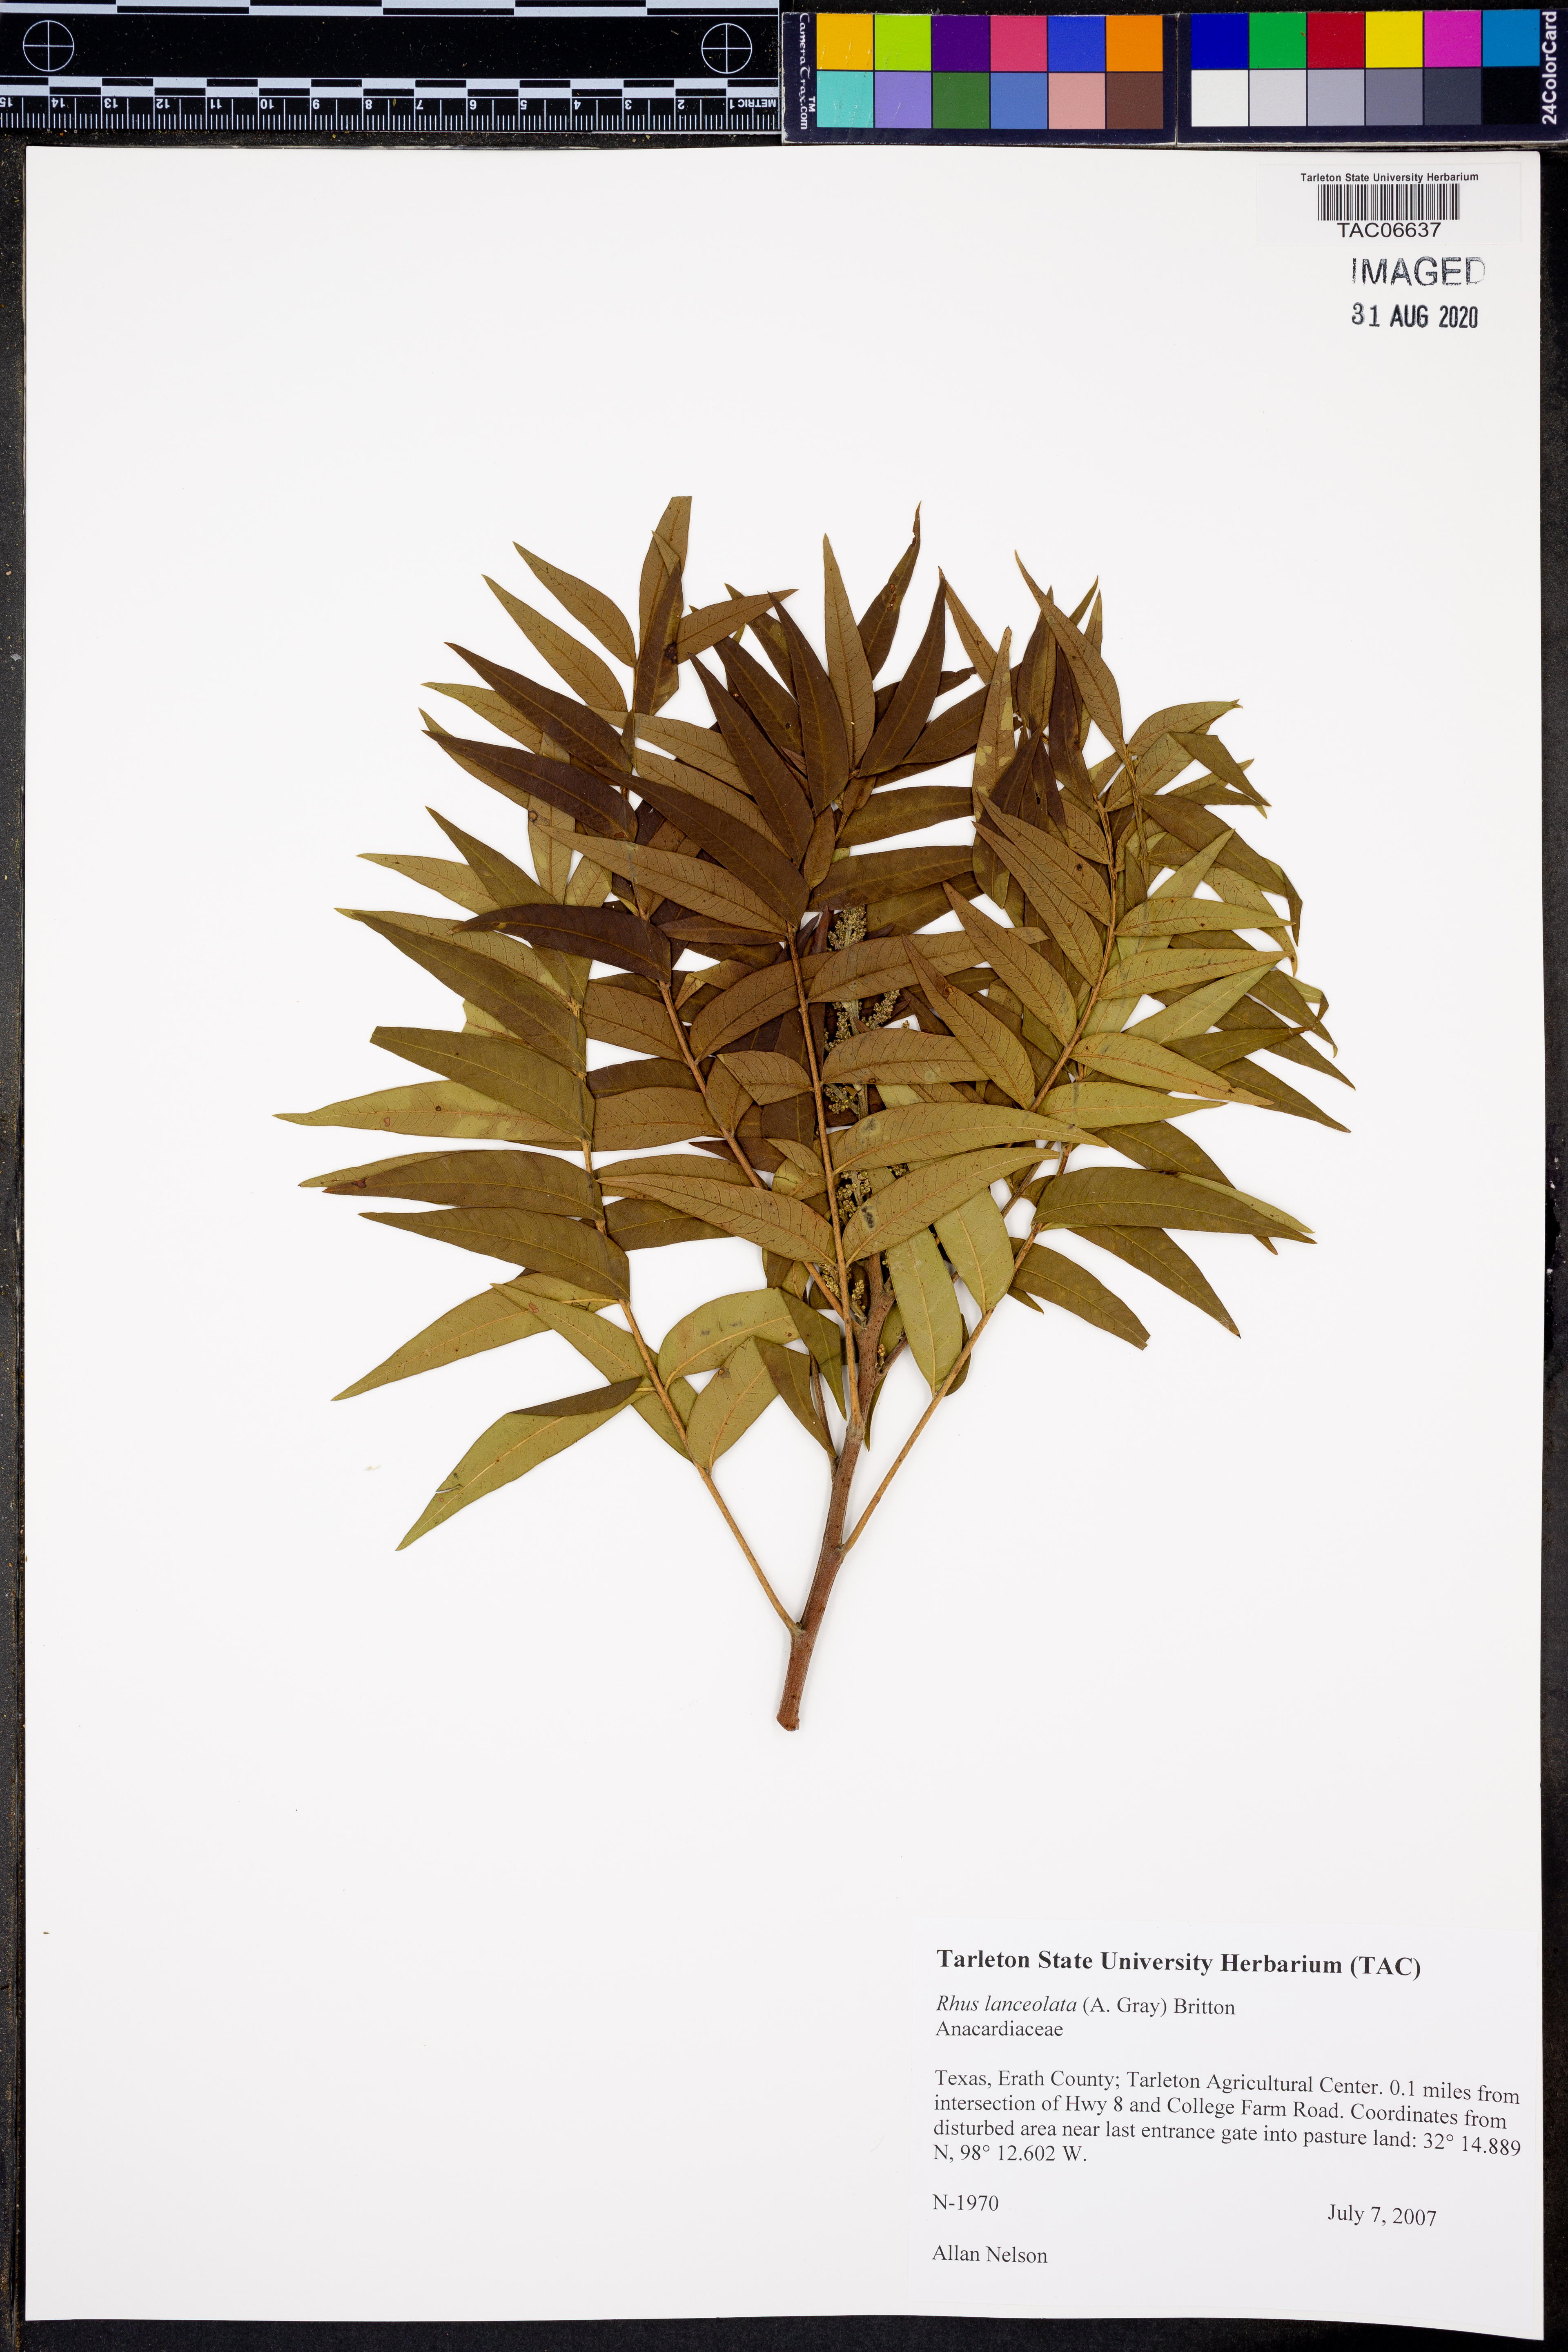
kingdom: Plantae
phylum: Tracheophyta
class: Magnoliopsida
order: Sapindales
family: Anacardiaceae
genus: Rhus
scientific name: Rhus lanceolata
